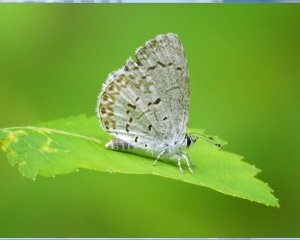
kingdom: Animalia
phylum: Arthropoda
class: Insecta
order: Lepidoptera
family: Lycaenidae
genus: Cyaniris
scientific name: Cyaniris neglecta
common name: Summer Azure
